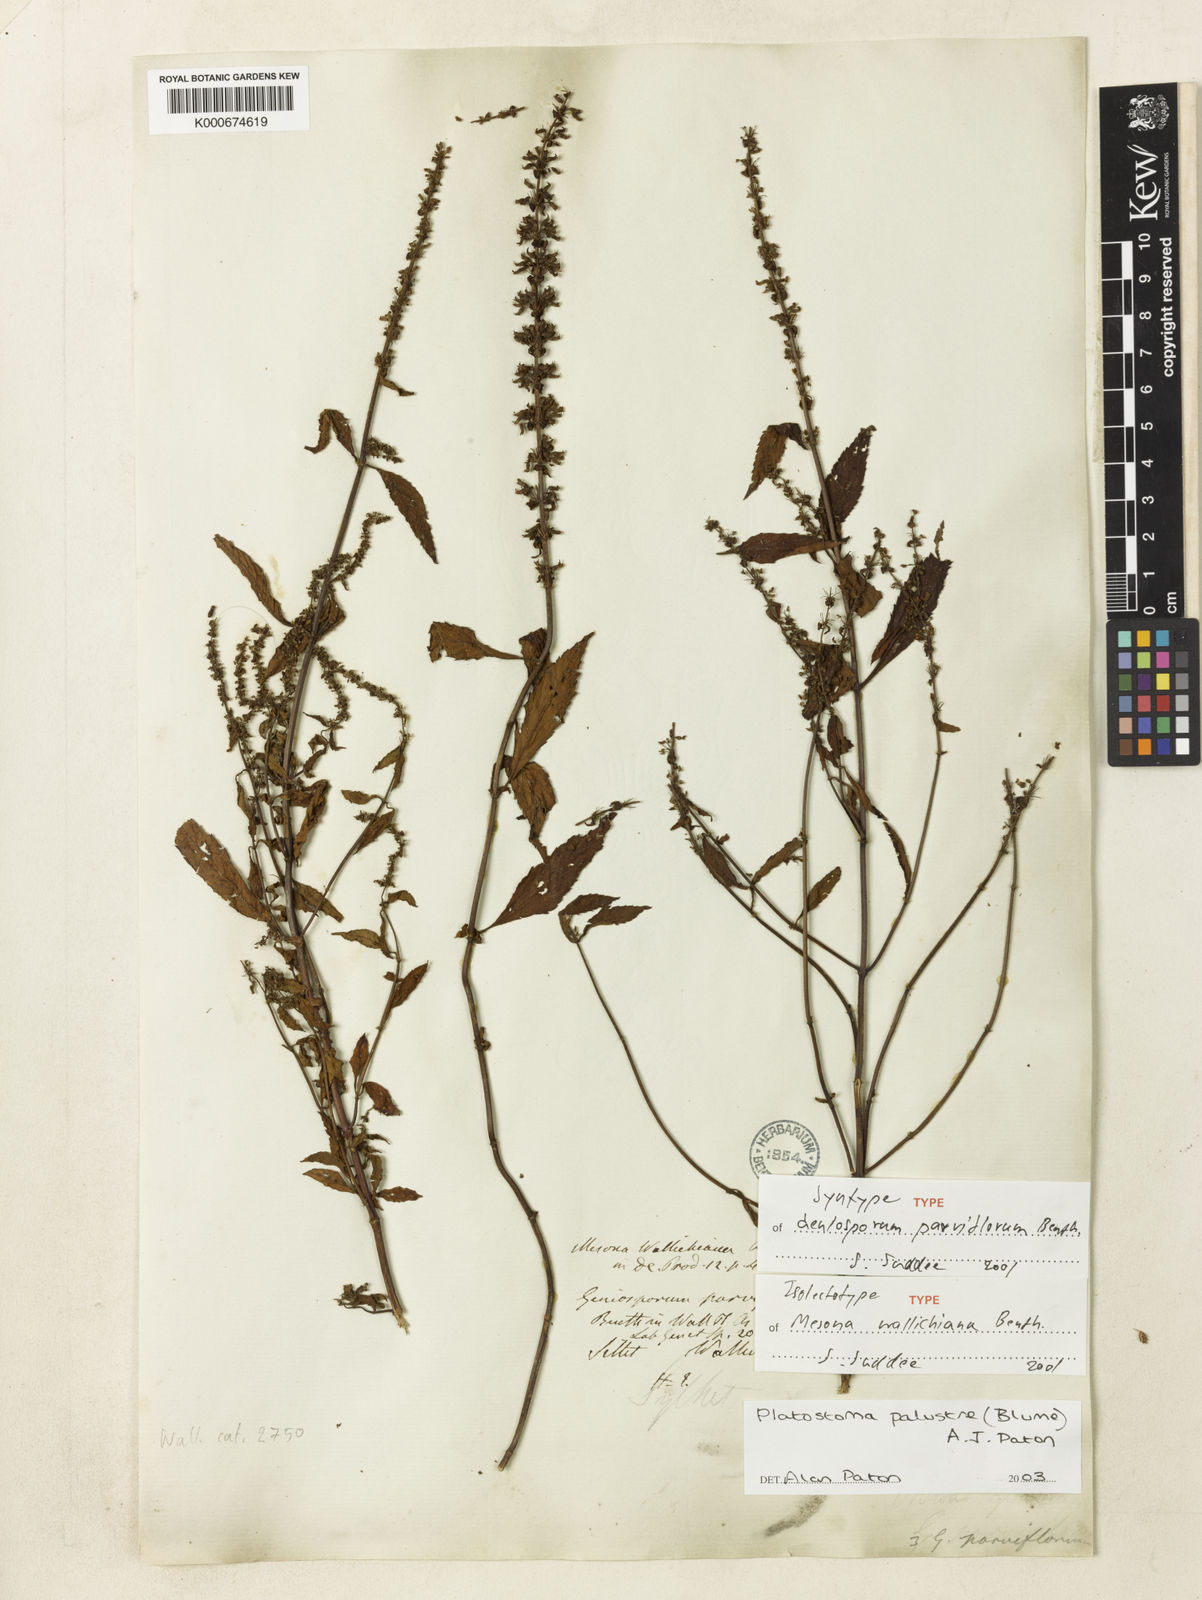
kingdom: Plantae
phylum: Tracheophyta
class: Magnoliopsida
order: Lamiales
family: Lamiaceae
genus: Platostoma
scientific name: Platostoma palustre
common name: Black cincau
